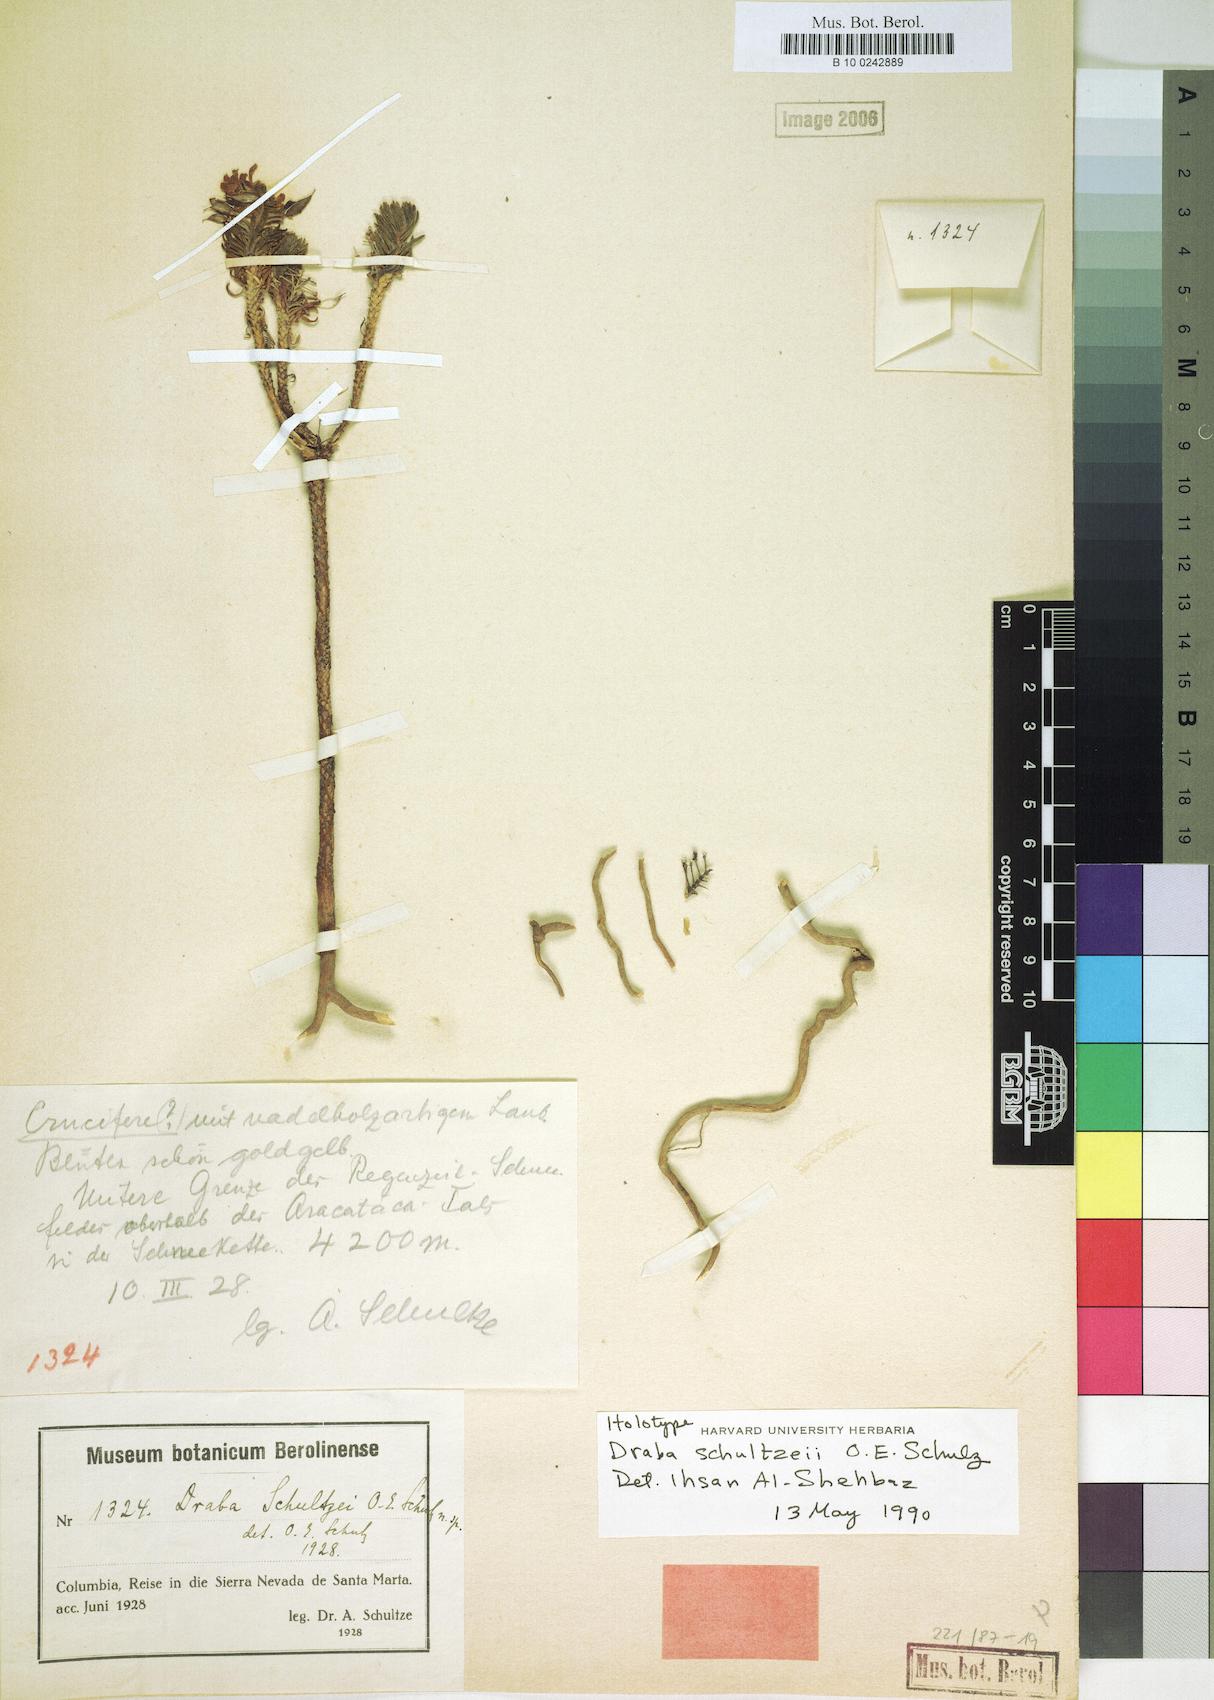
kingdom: Plantae
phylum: Tracheophyta
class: Magnoliopsida
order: Brassicales
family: Brassicaceae
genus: Draba
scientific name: Draba schultzei
